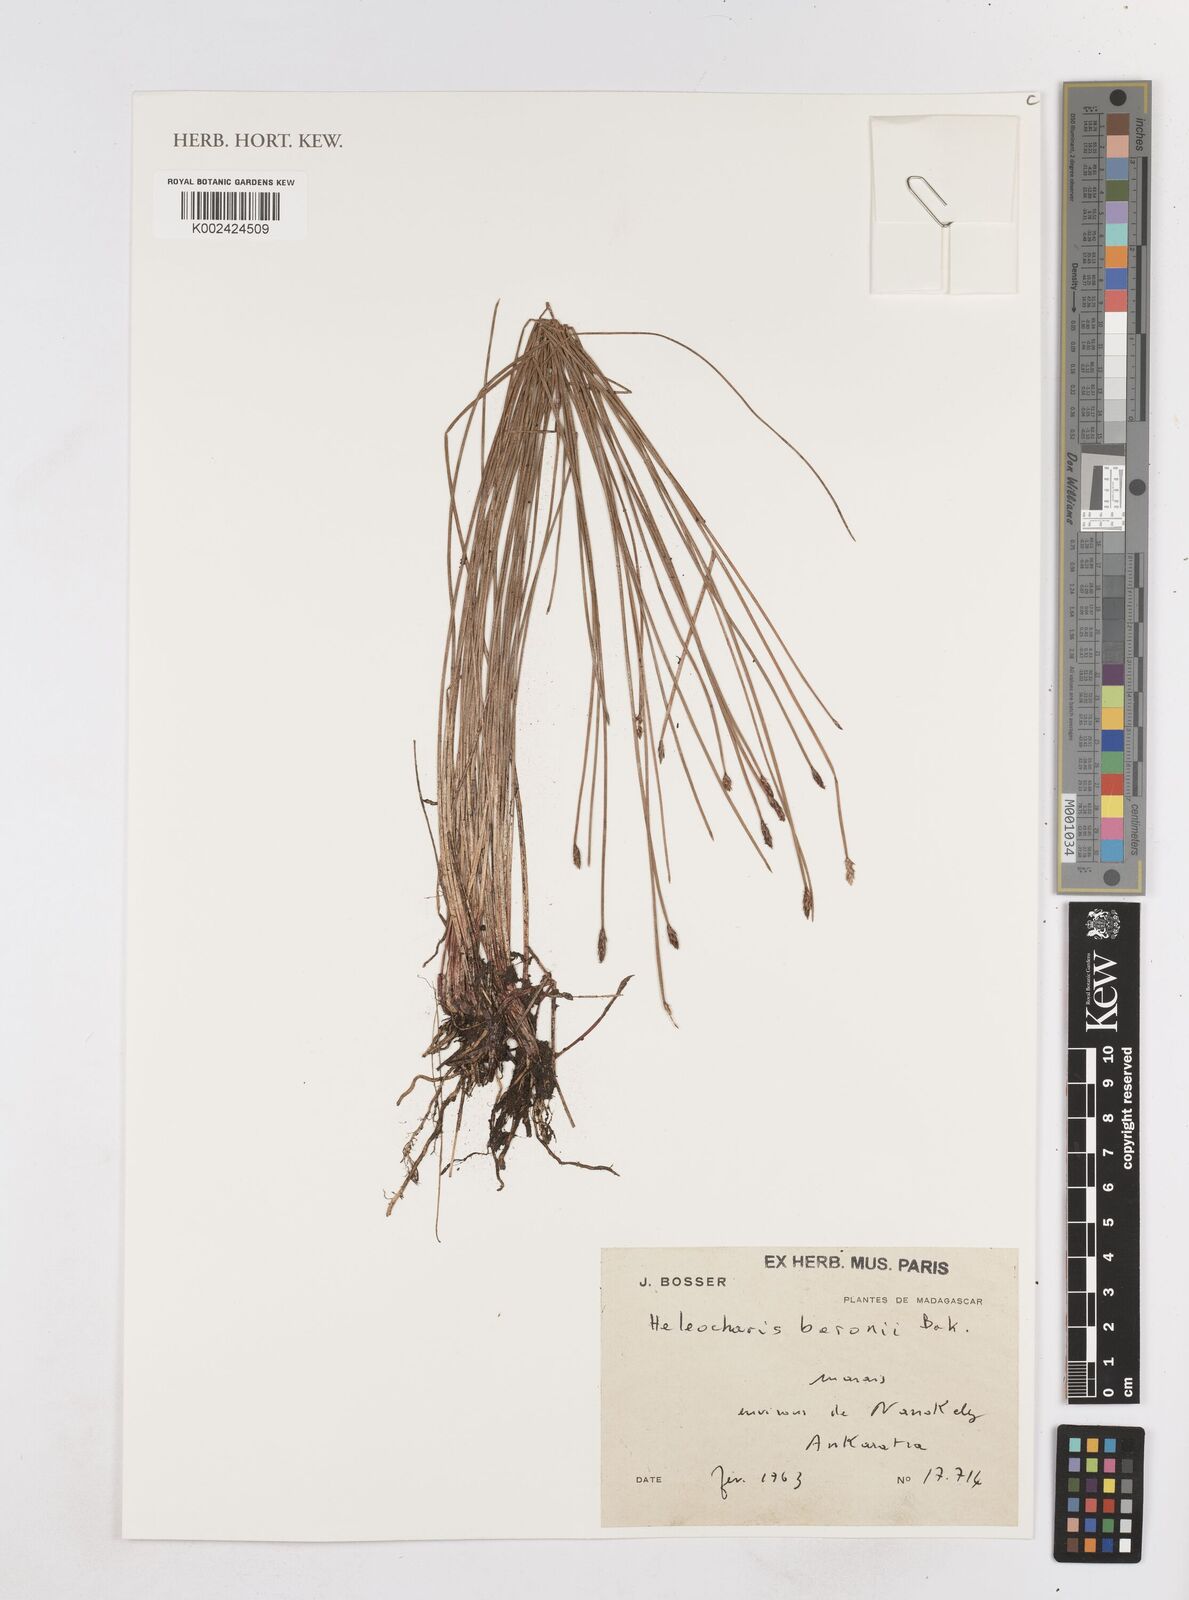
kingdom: Plantae
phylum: Tracheophyta
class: Liliopsida
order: Poales
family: Cyperaceae
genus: Eleocharis
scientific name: Eleocharis limosa
